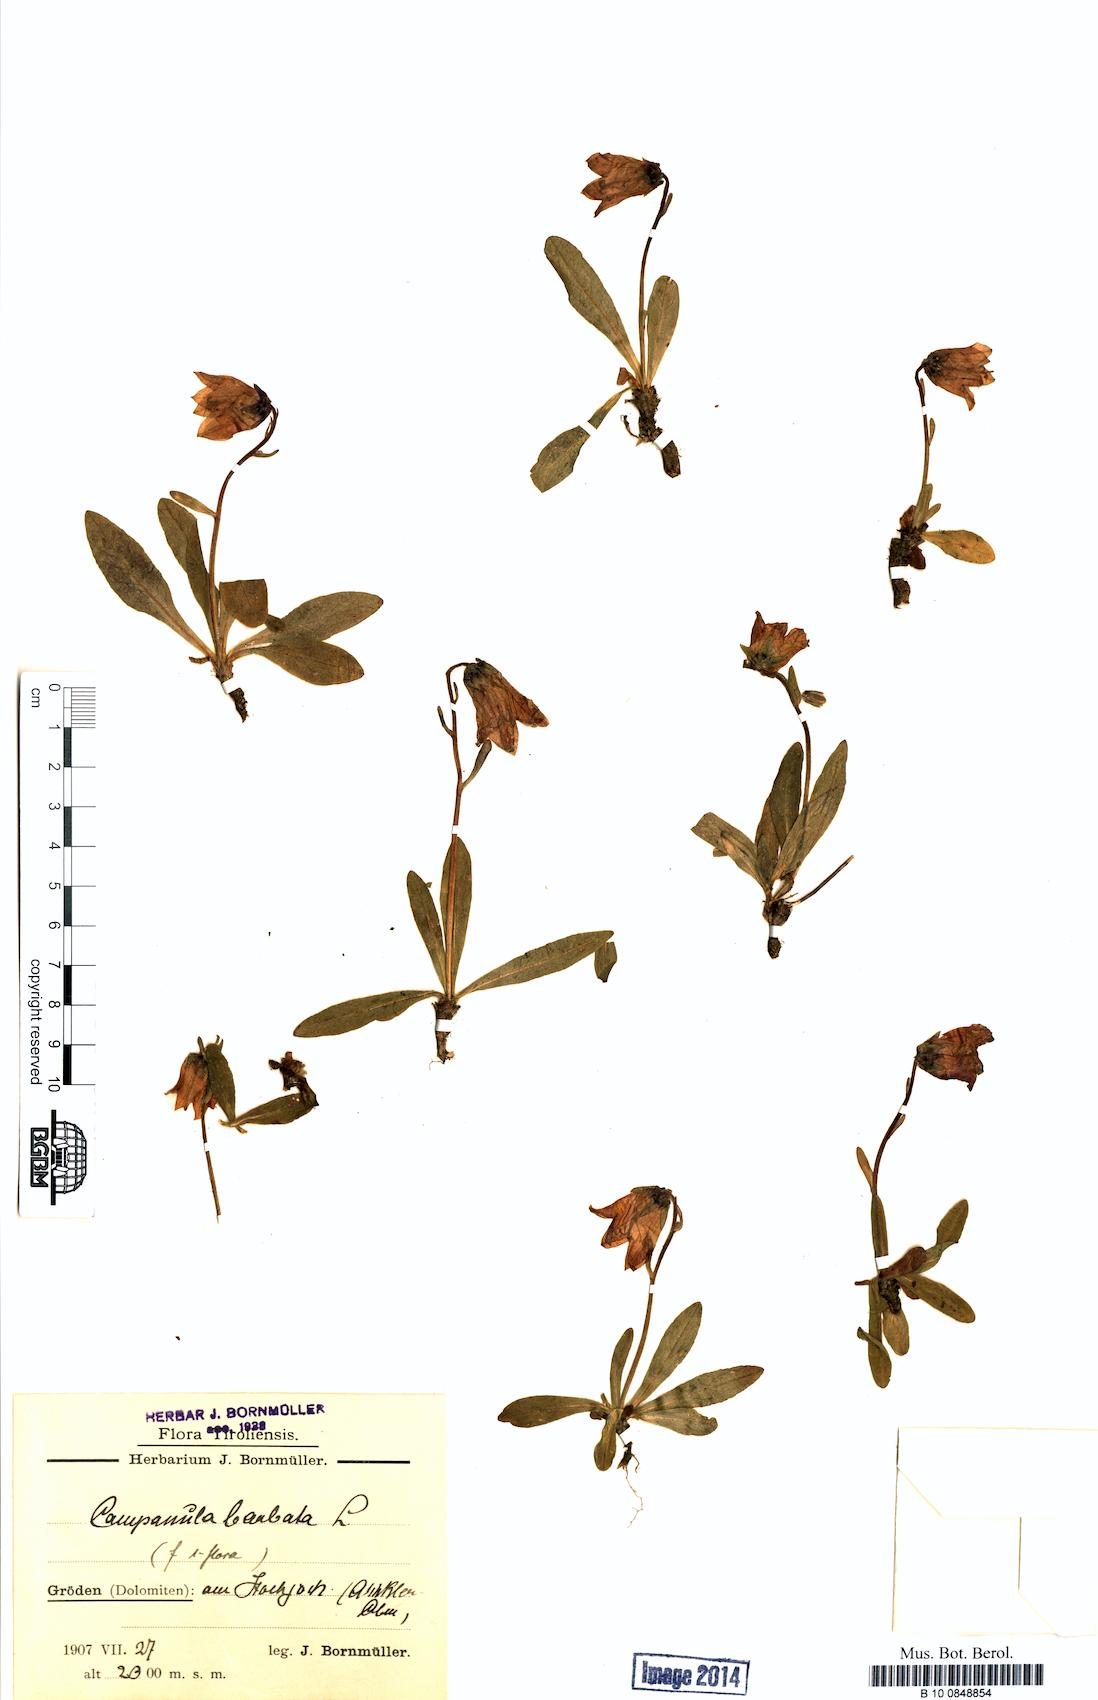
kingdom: Plantae
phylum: Tracheophyta
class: Magnoliopsida
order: Asterales
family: Campanulaceae
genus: Campanula
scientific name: Campanula barbata
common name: Bearded bellflower
